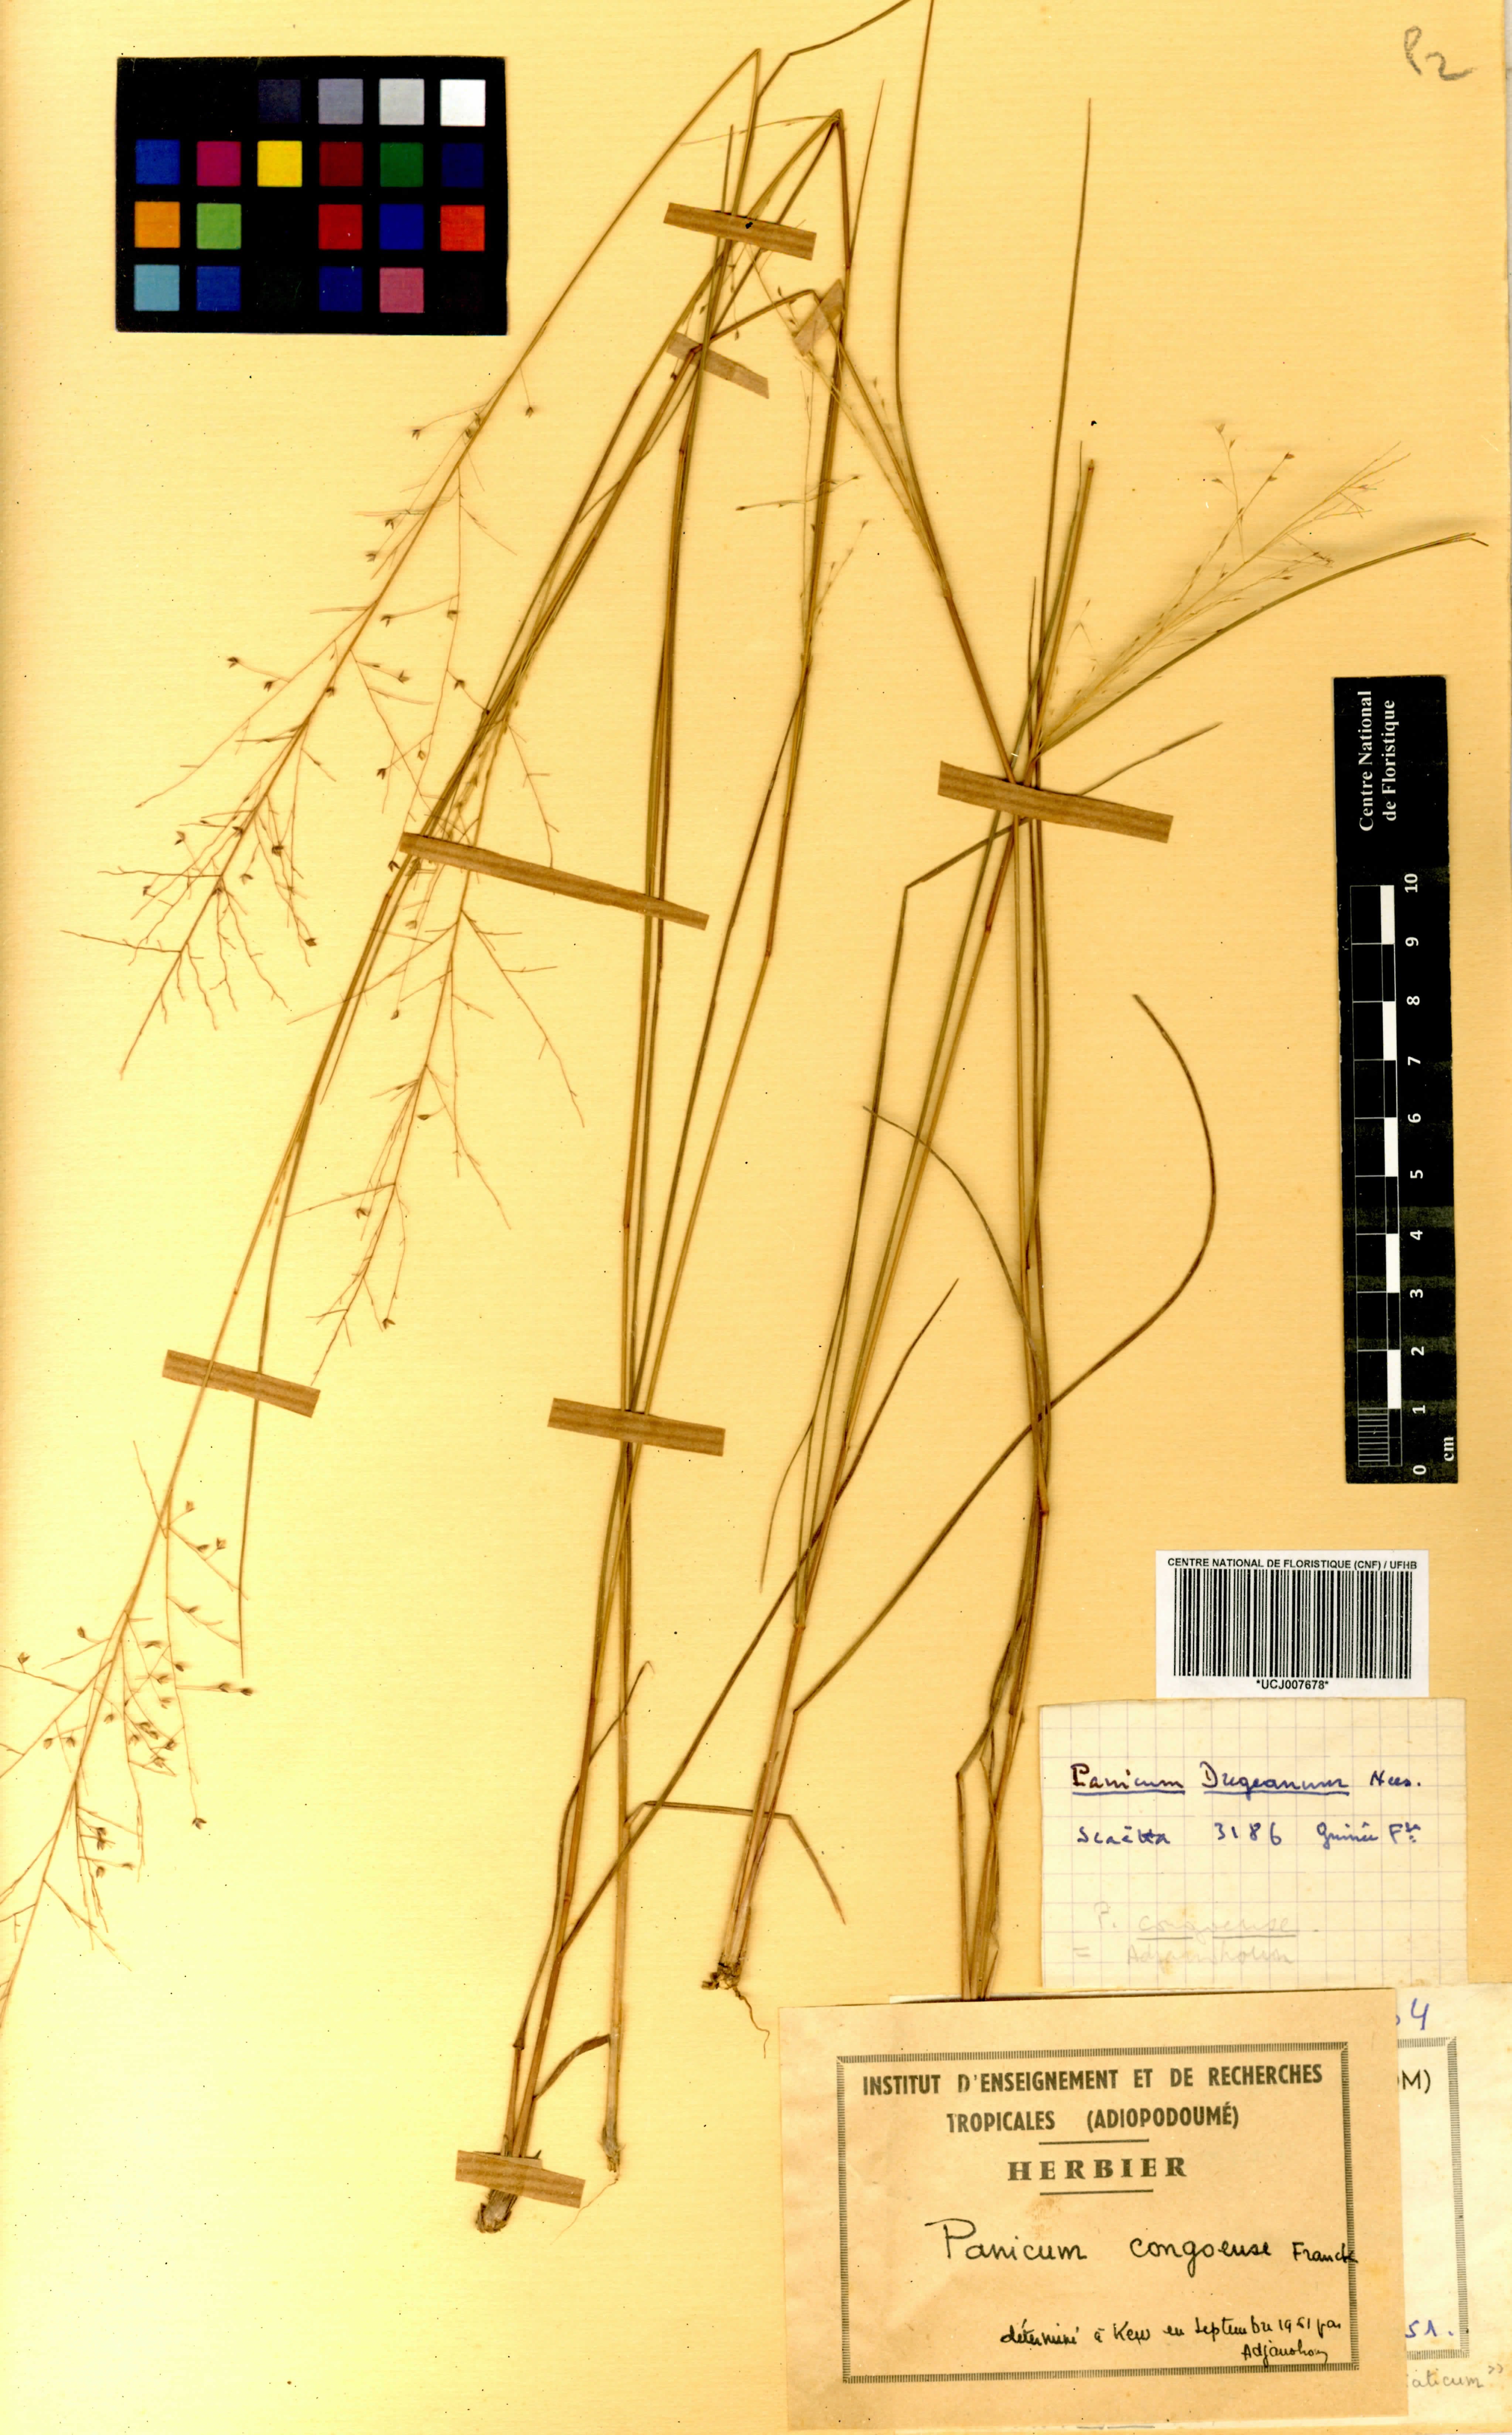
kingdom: Plantae
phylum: Tracheophyta
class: Liliopsida
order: Poales
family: Poaceae
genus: Panicum
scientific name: Panicum congoense
